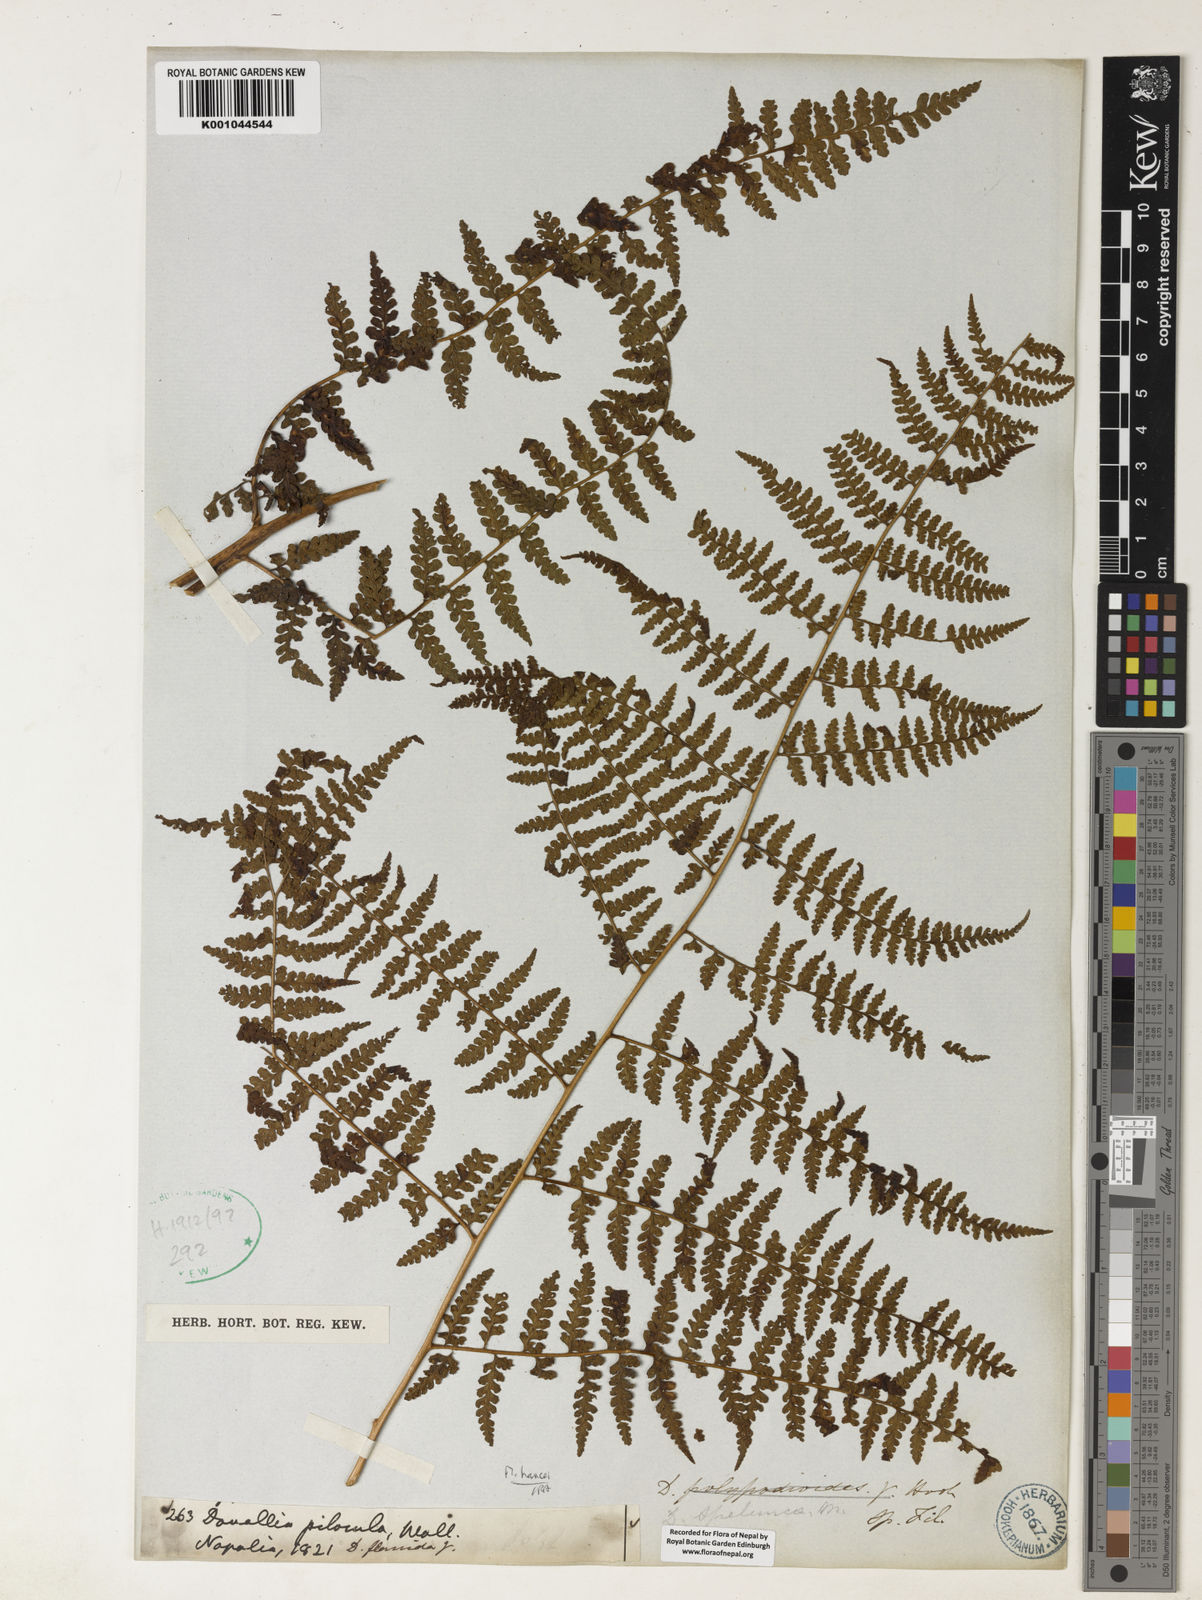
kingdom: Plantae
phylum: Tracheophyta
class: Polypodiopsida
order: Polypodiales
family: Davalliaceae
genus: Davallia
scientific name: Davallia
